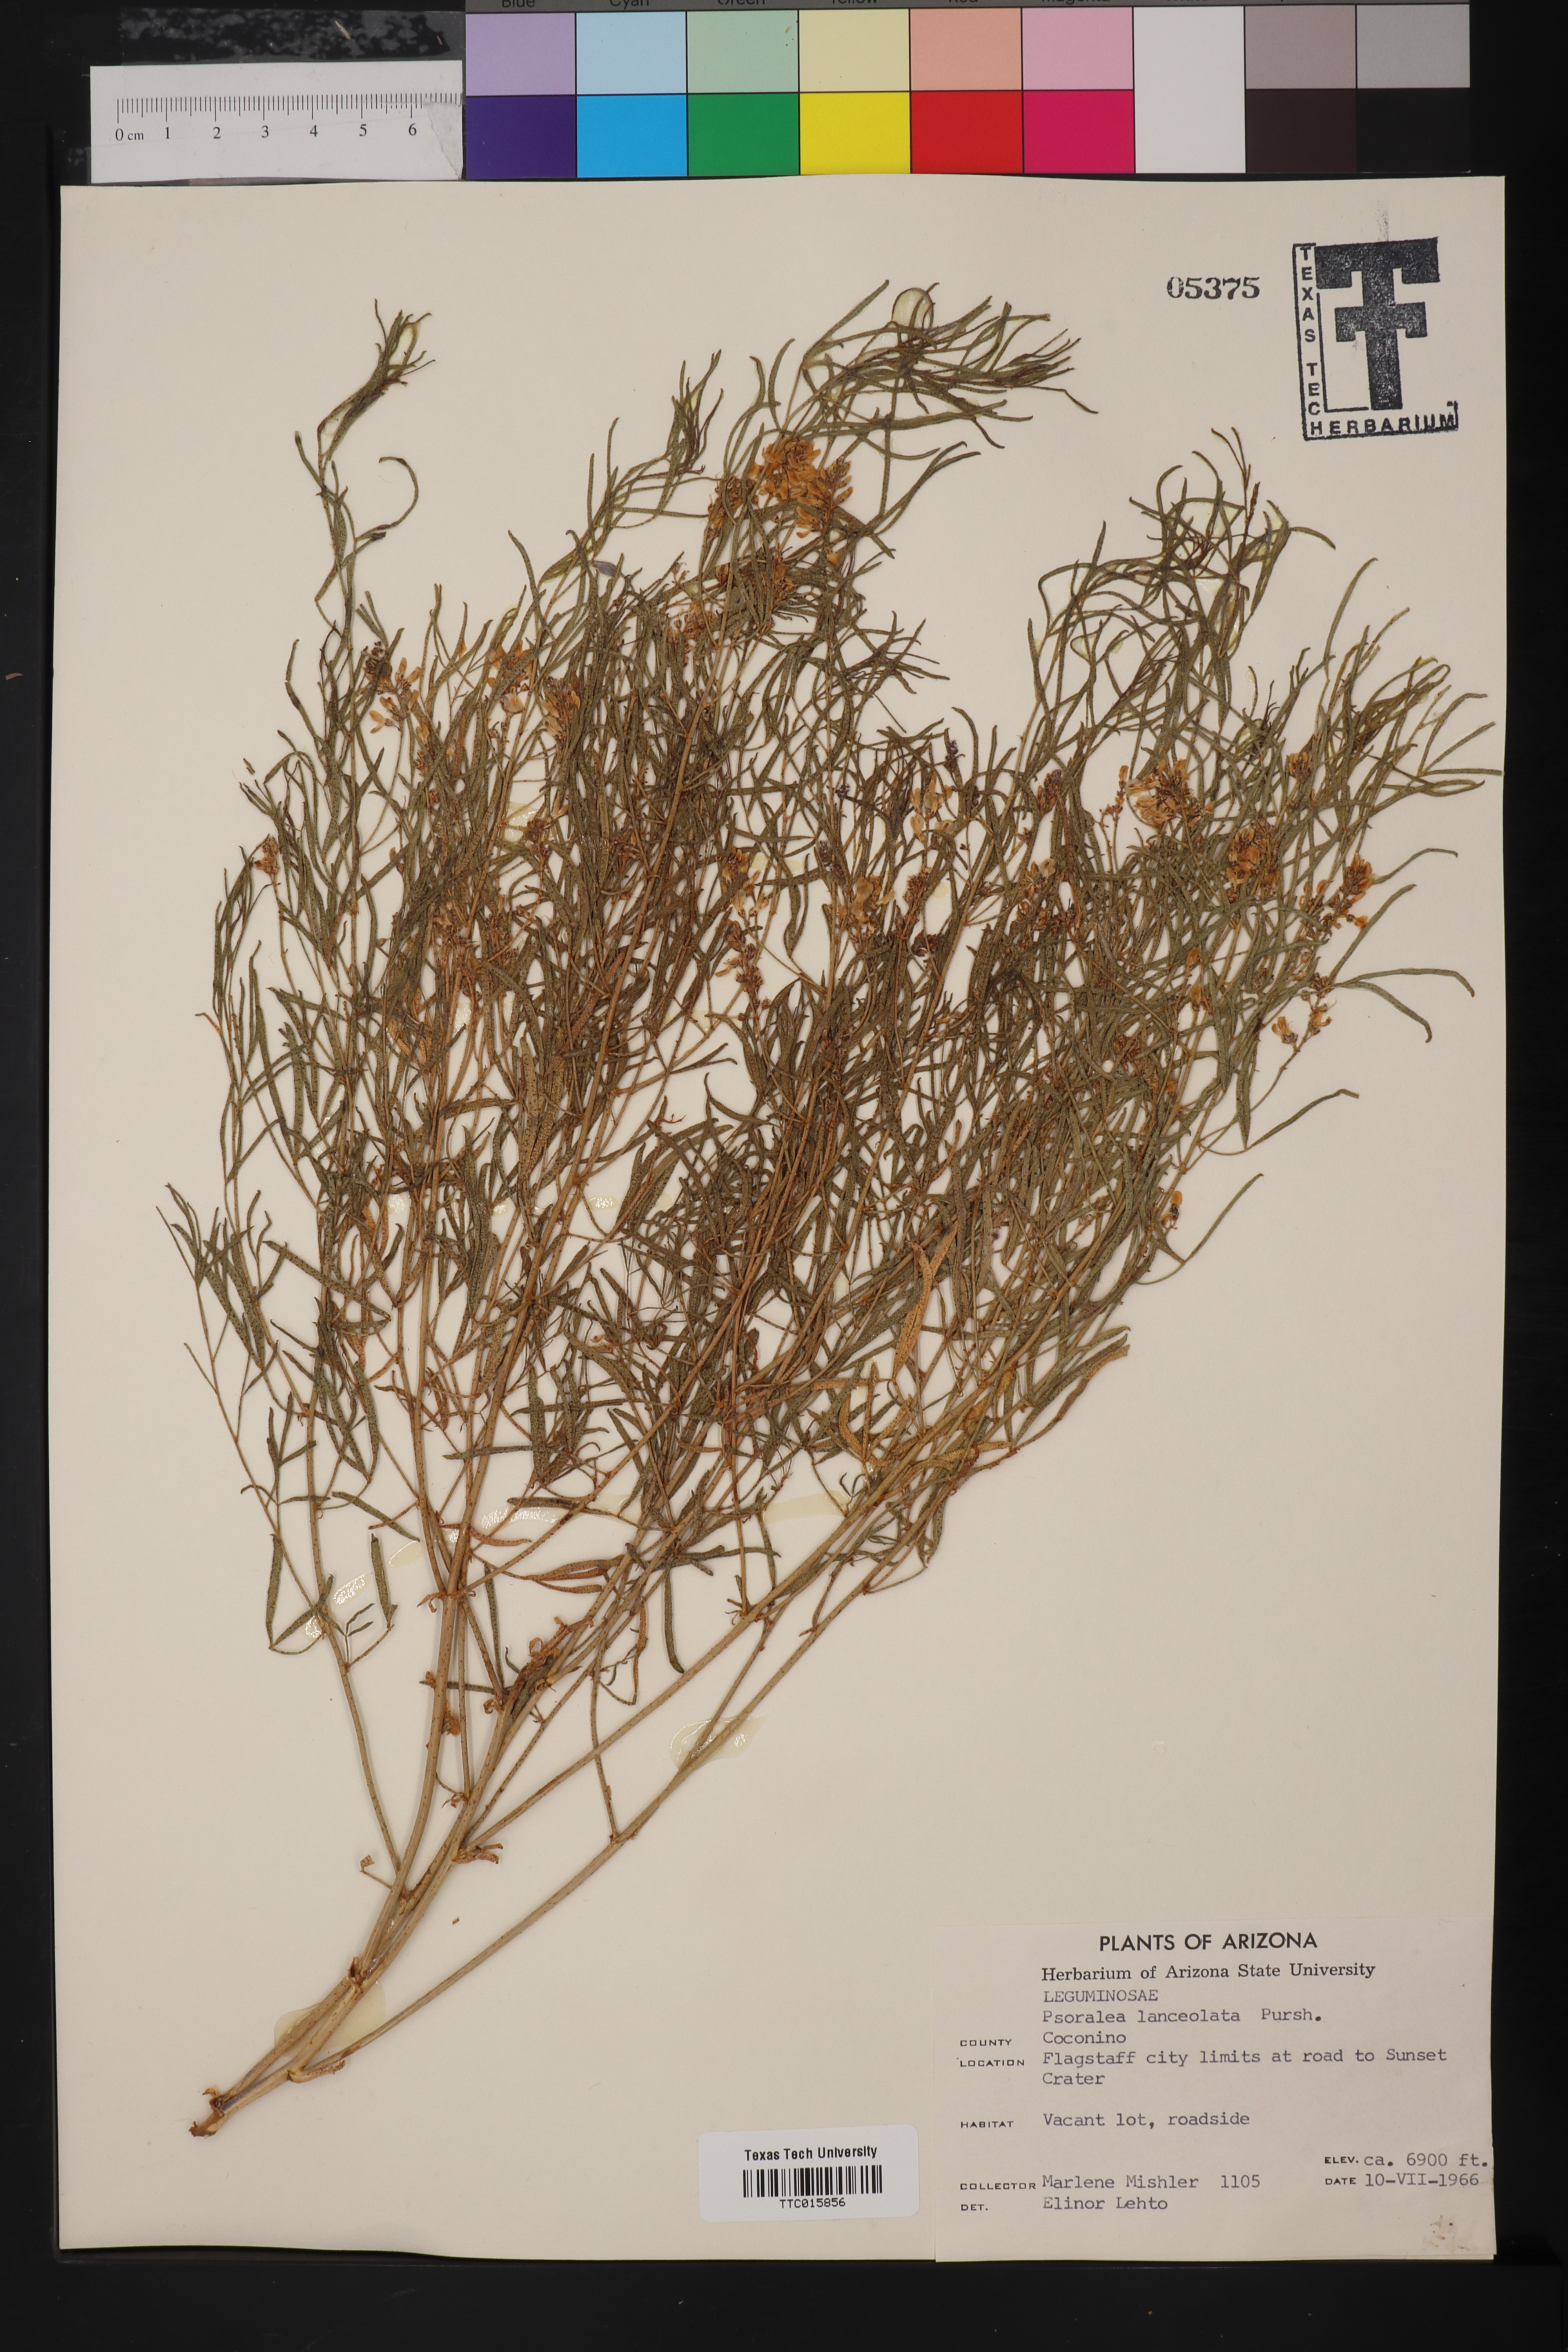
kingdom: Plantae
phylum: Tracheophyta
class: Magnoliopsida
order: Fabales
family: Fabaceae
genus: Ladeania
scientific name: Ladeania lanceolata
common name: Dune scurf-pea
